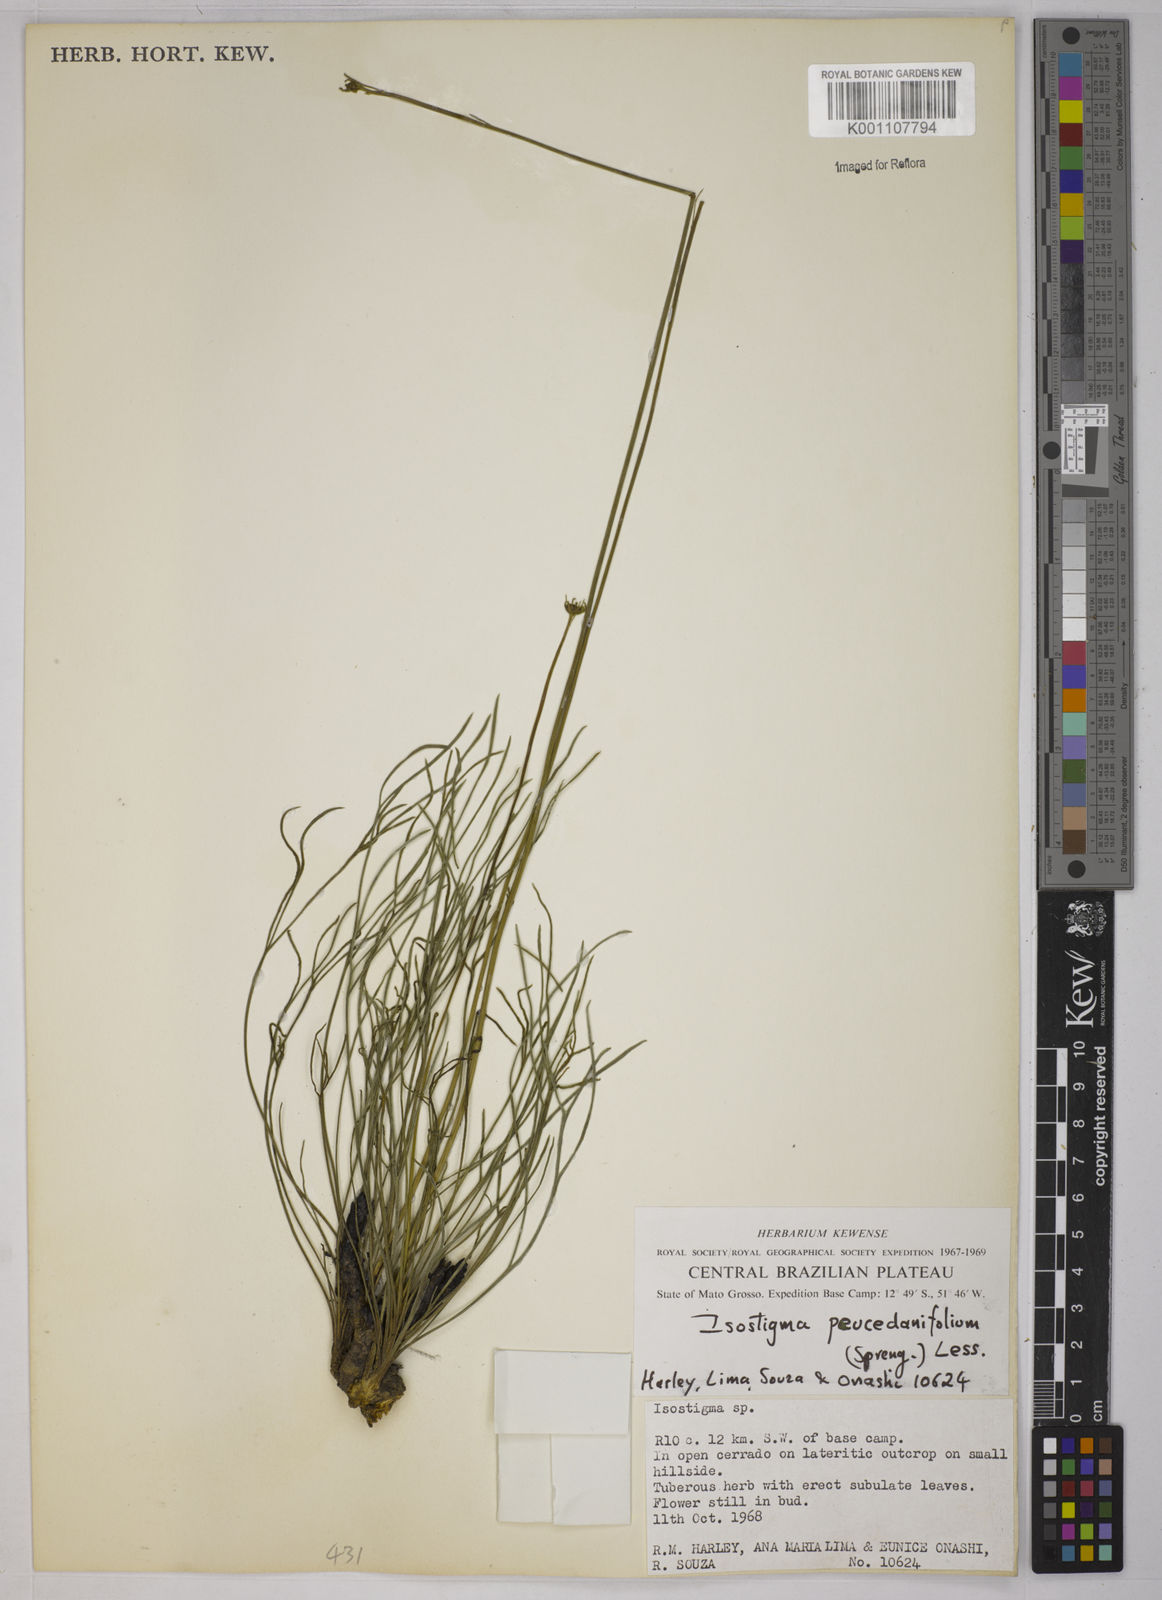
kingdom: Plantae
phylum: Tracheophyta
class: Magnoliopsida
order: Asterales
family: Asteraceae
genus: Isostigma
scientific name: Isostigma
